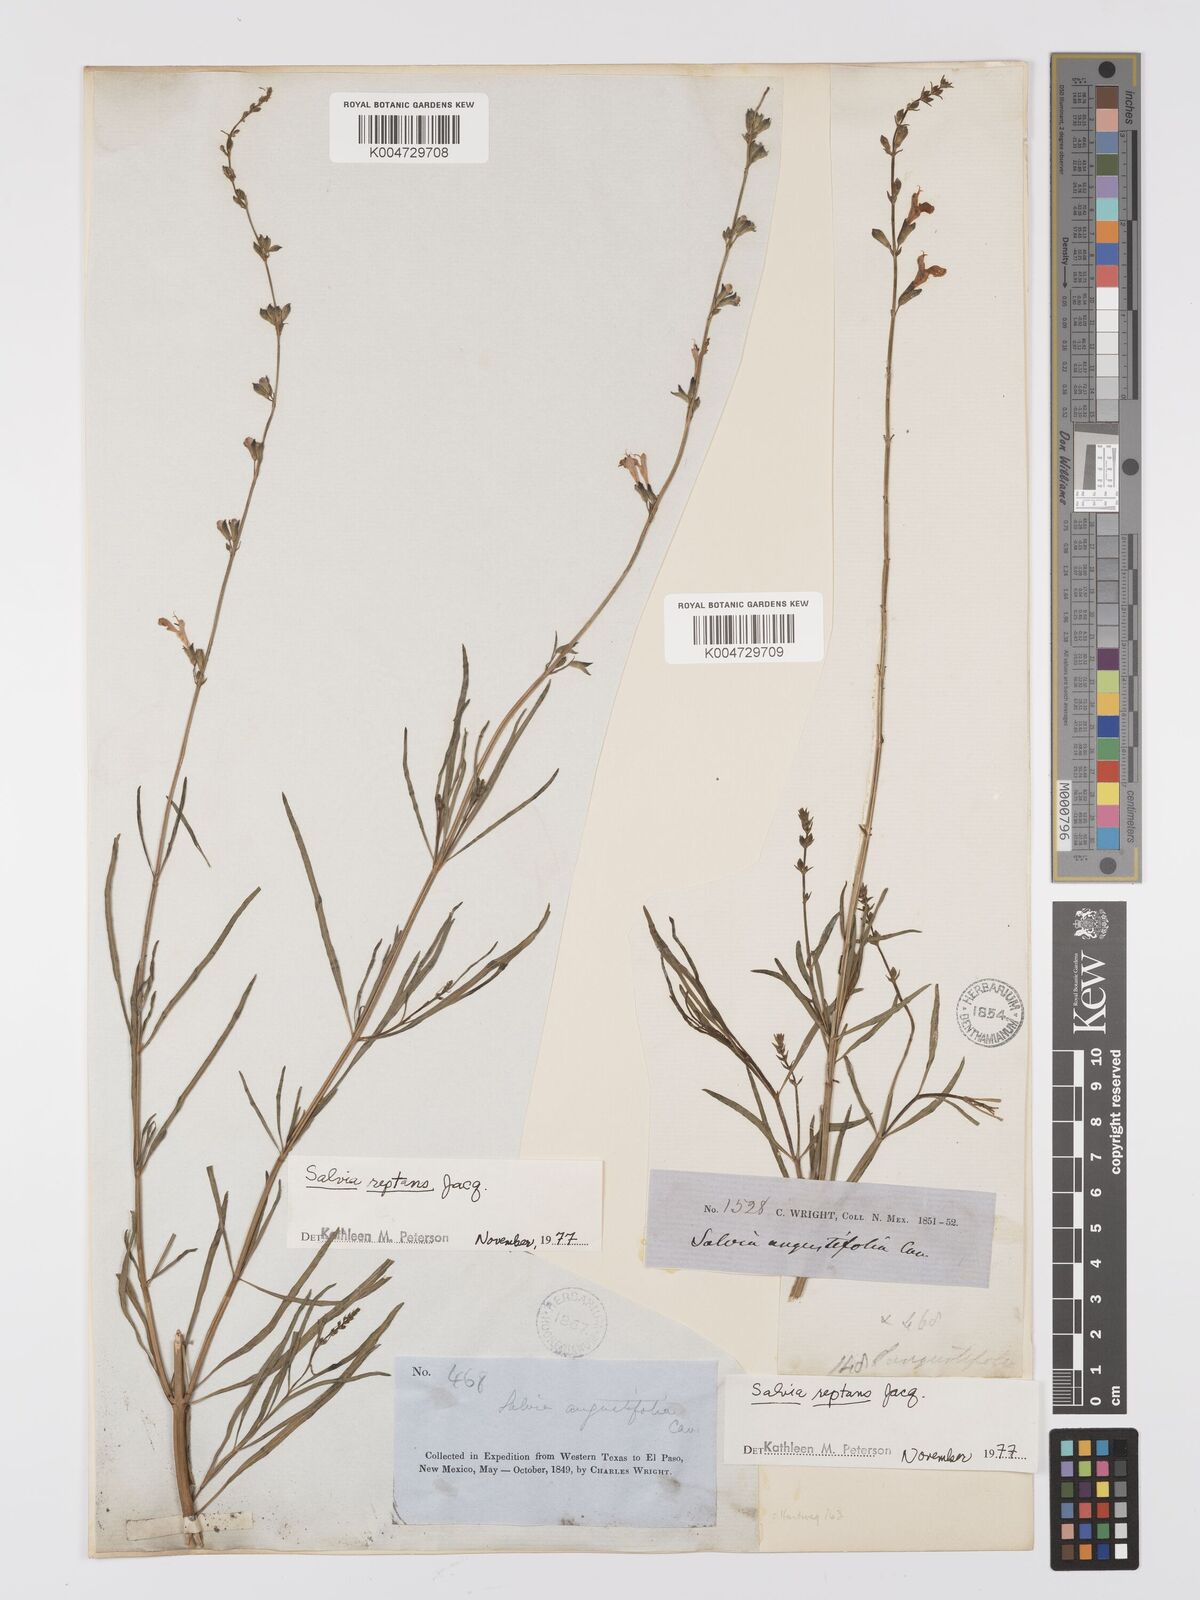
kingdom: Plantae
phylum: Tracheophyta
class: Magnoliopsida
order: Lamiales
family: Lamiaceae
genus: Salvia
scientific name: Salvia reptans
